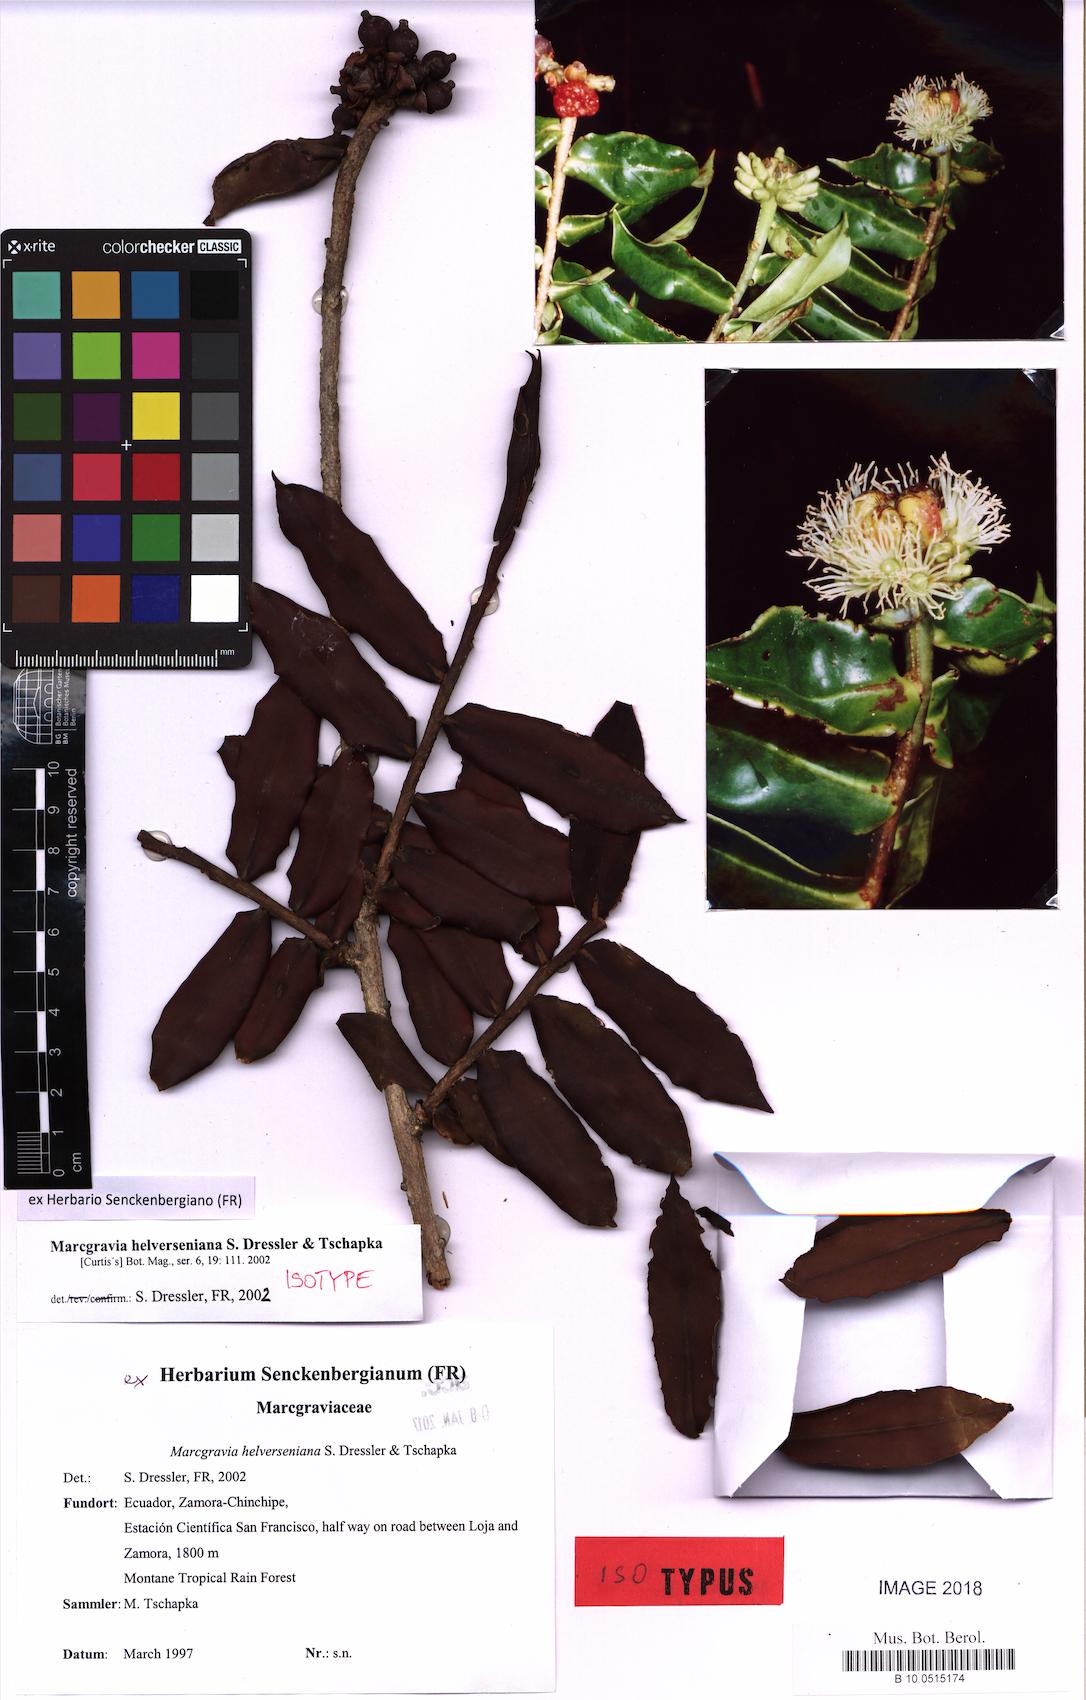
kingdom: Plantae
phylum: Tracheophyta
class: Magnoliopsida
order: Ericales
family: Marcgraviaceae
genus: Marcgravia
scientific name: Marcgravia helverseniana
